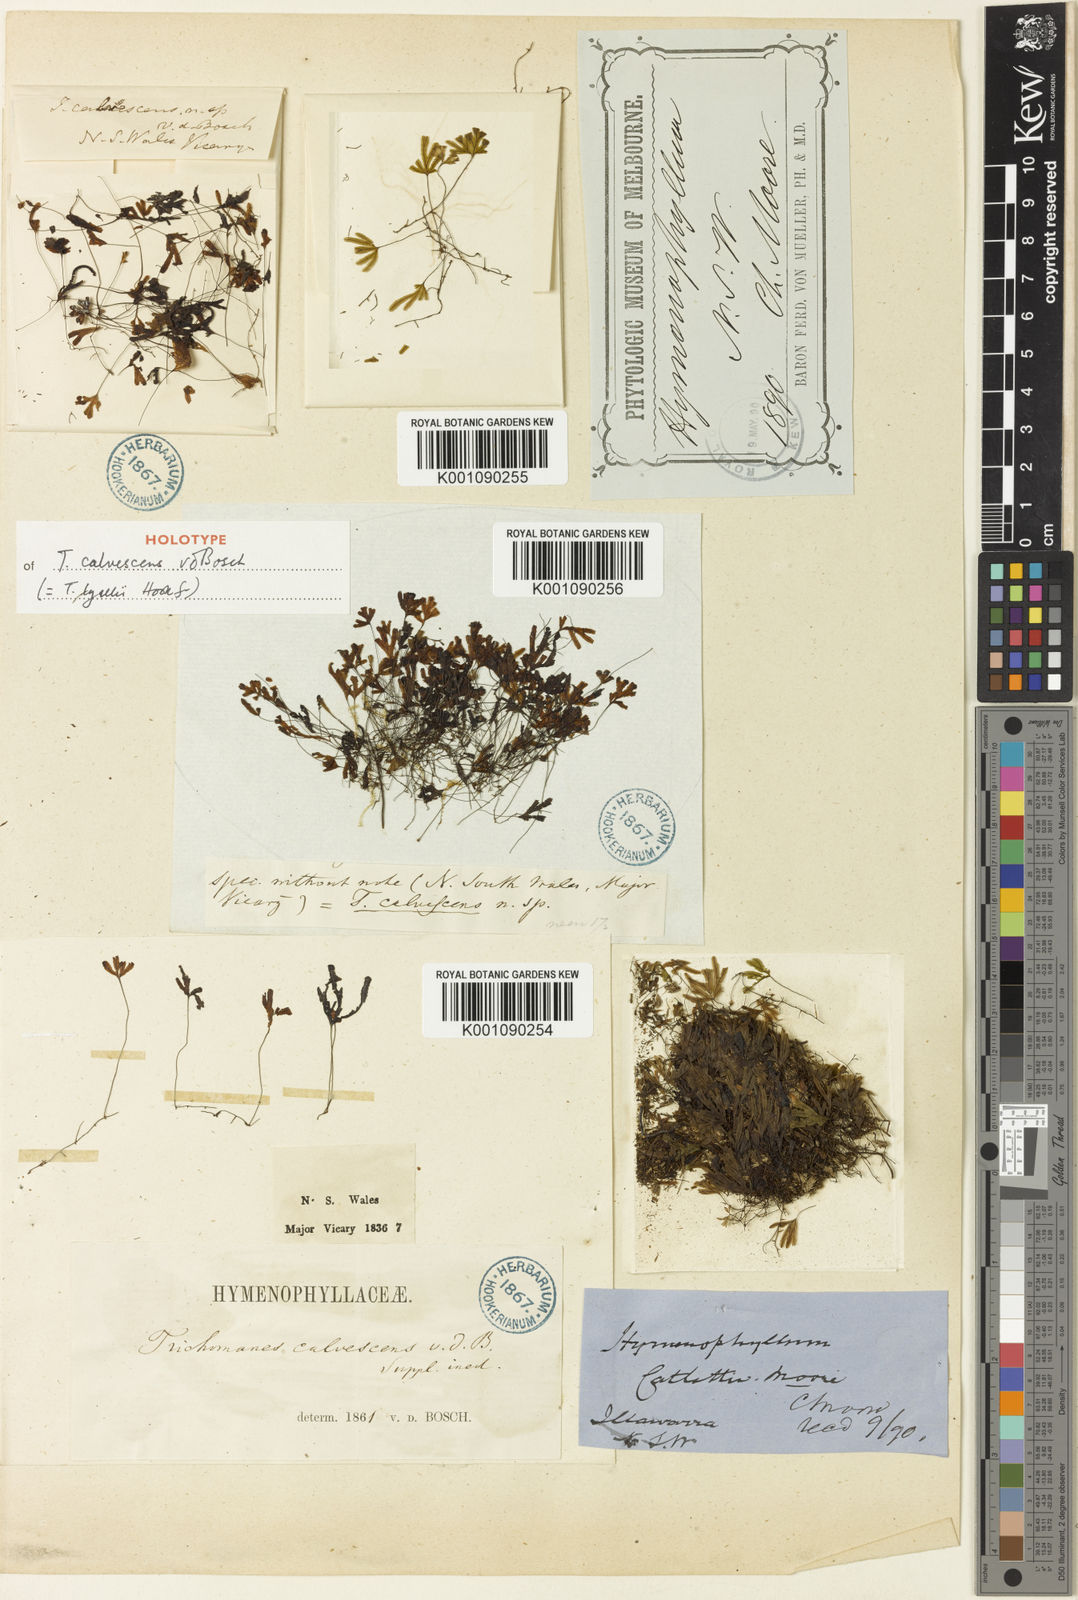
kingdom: Plantae
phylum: Tracheophyta
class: Polypodiopsida
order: Hymenophyllales
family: Hymenophyllaceae
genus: Hymenophyllum
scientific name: Hymenophyllum lyallii
